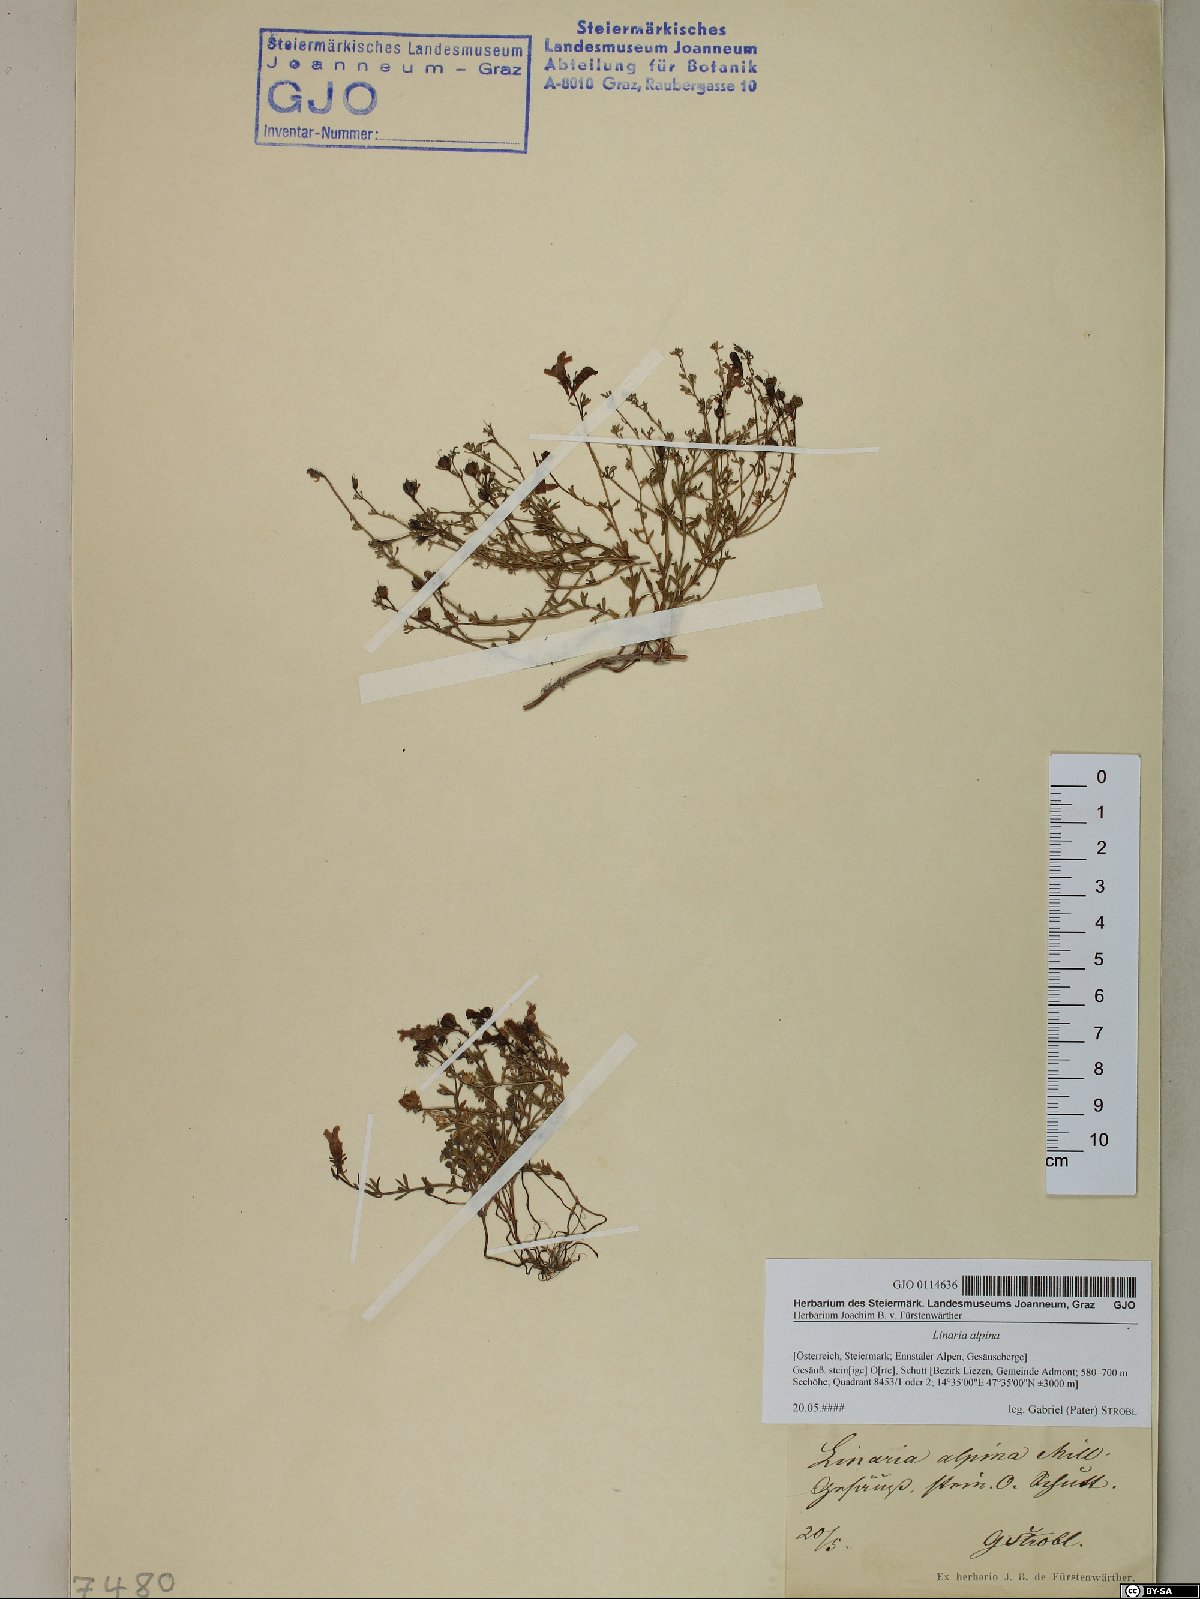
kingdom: Plantae
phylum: Tracheophyta
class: Magnoliopsida
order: Lamiales
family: Plantaginaceae
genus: Linaria
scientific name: Linaria alpina
